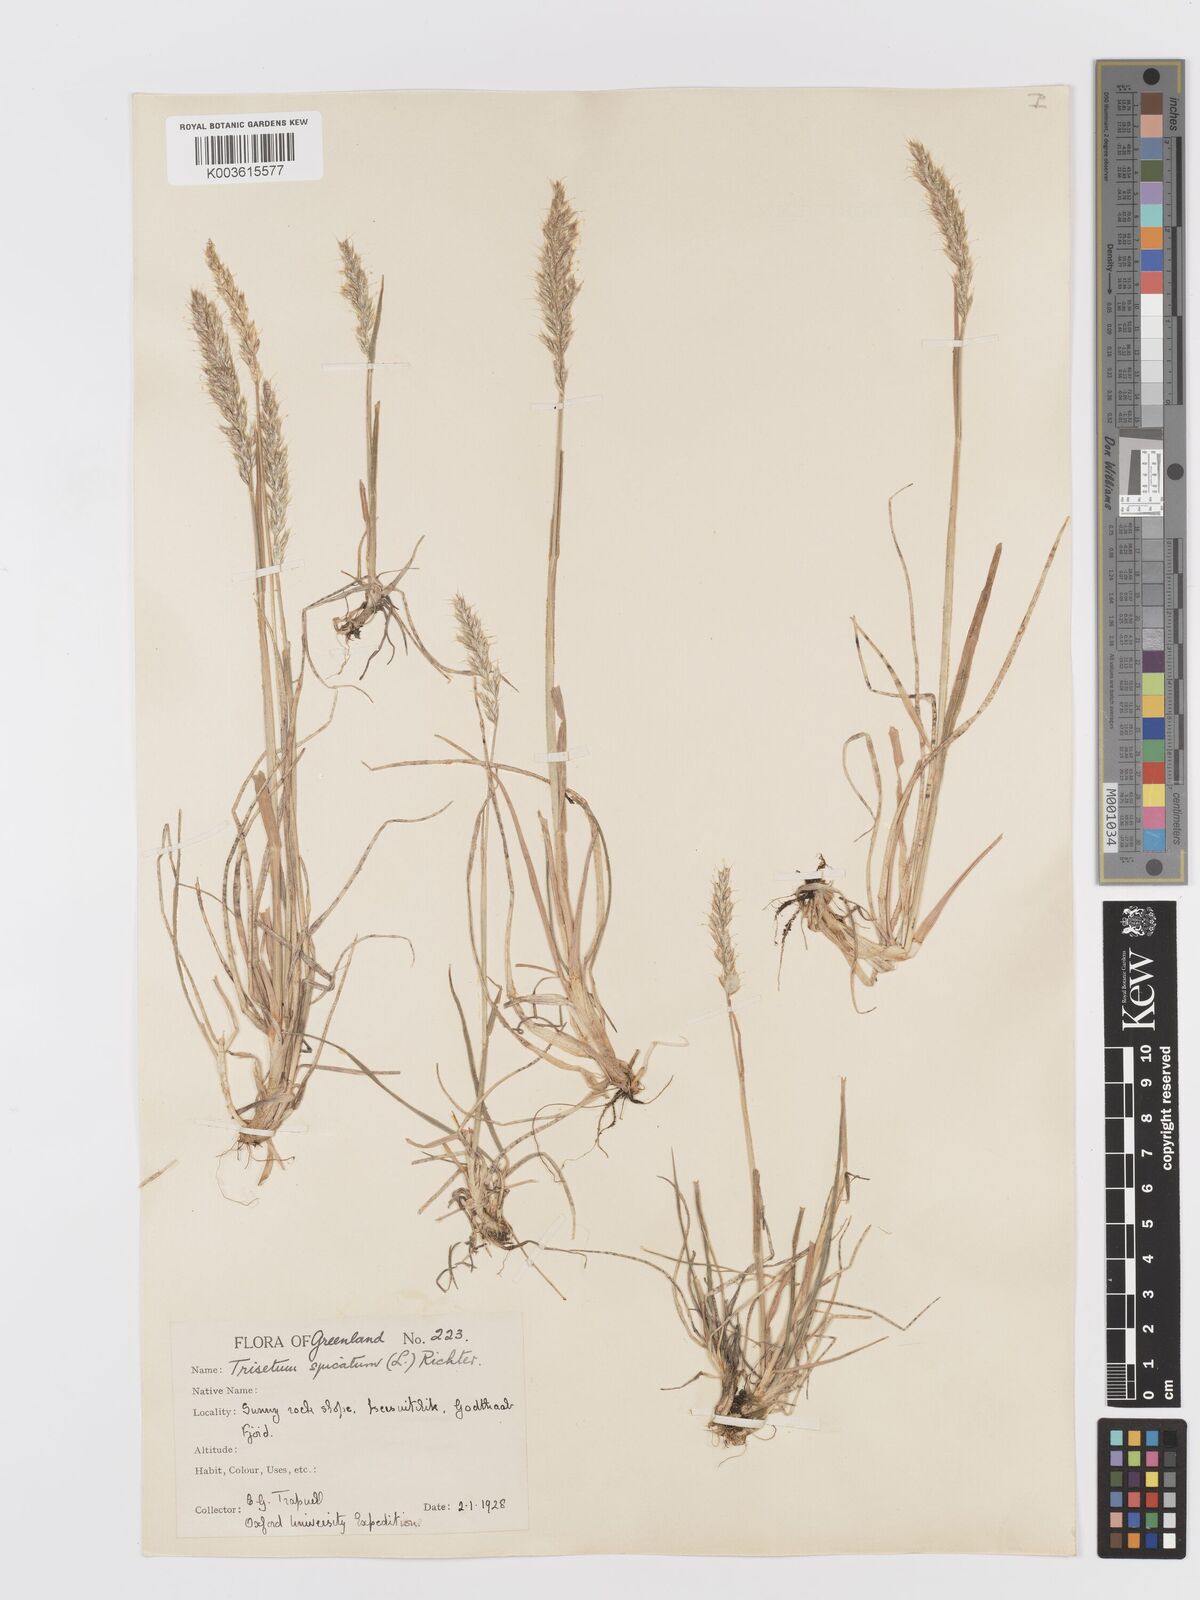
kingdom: Plantae
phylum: Tracheophyta
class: Liliopsida
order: Poales
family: Poaceae
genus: Koeleria
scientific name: Koeleria spicata
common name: Mountain trisetum
